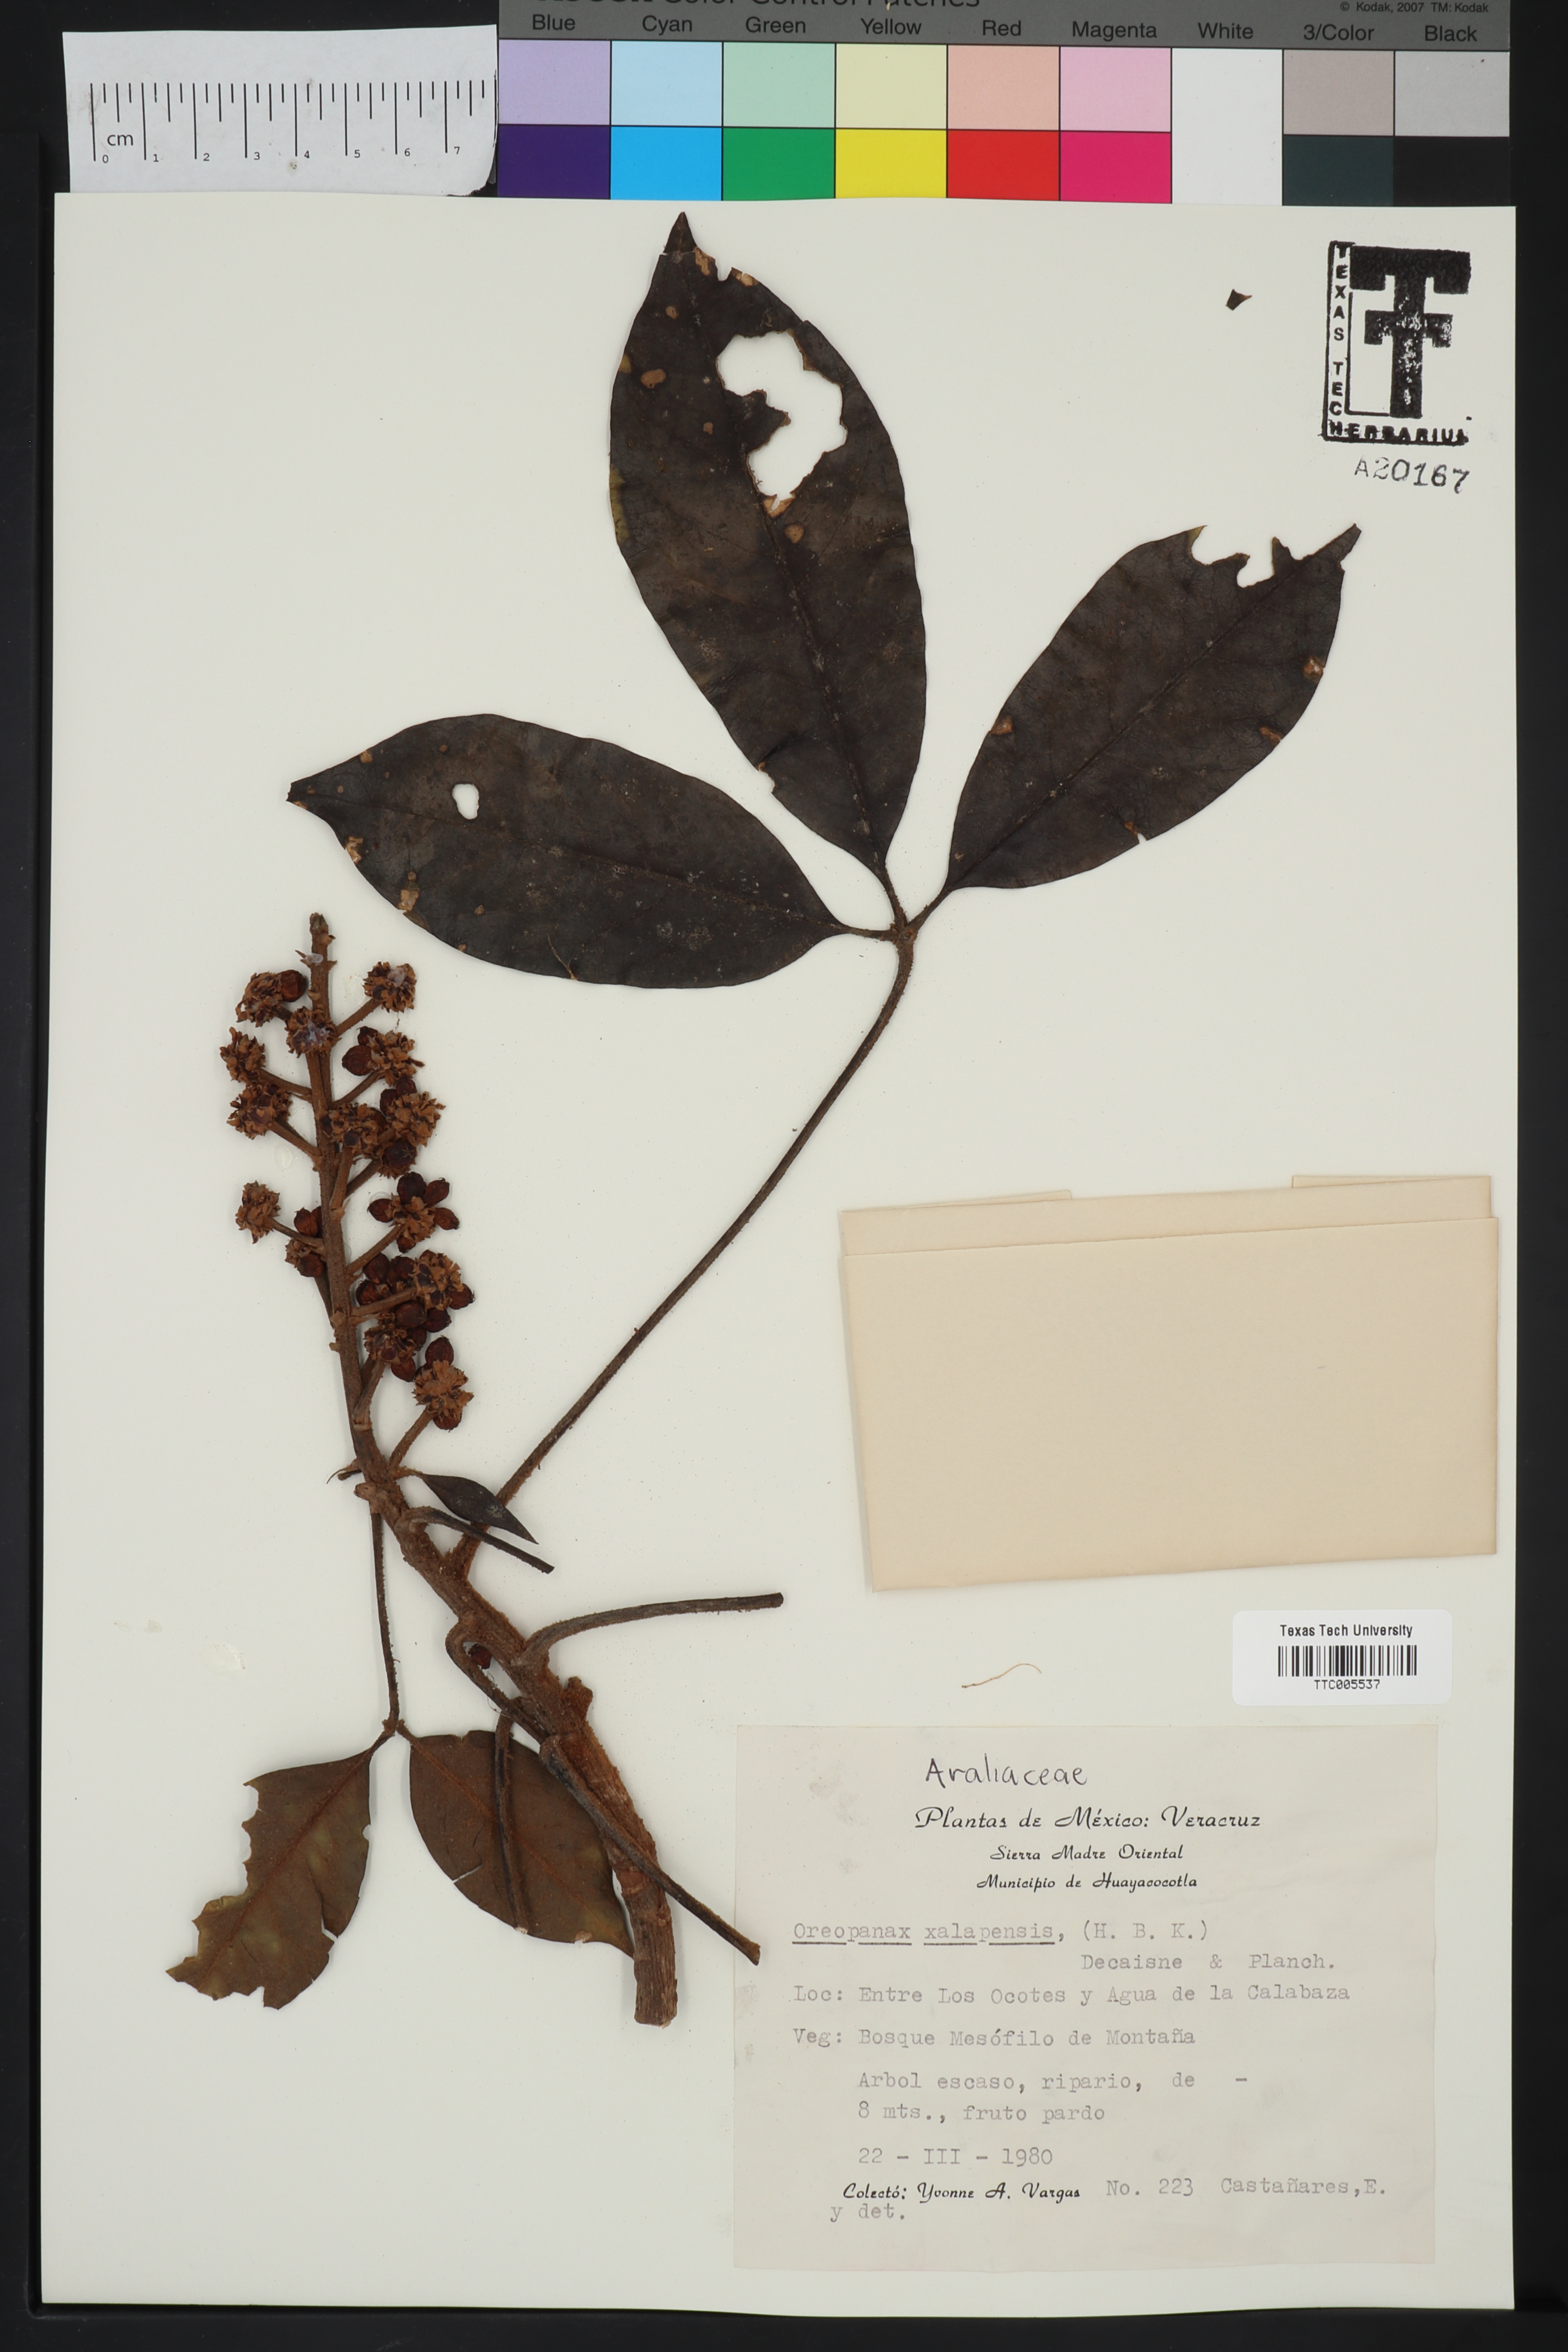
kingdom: Plantae
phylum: Tracheophyta
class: Magnoliopsida
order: Apiales
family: Araliaceae
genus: Oreopanax
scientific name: Oreopanax xalapensis
